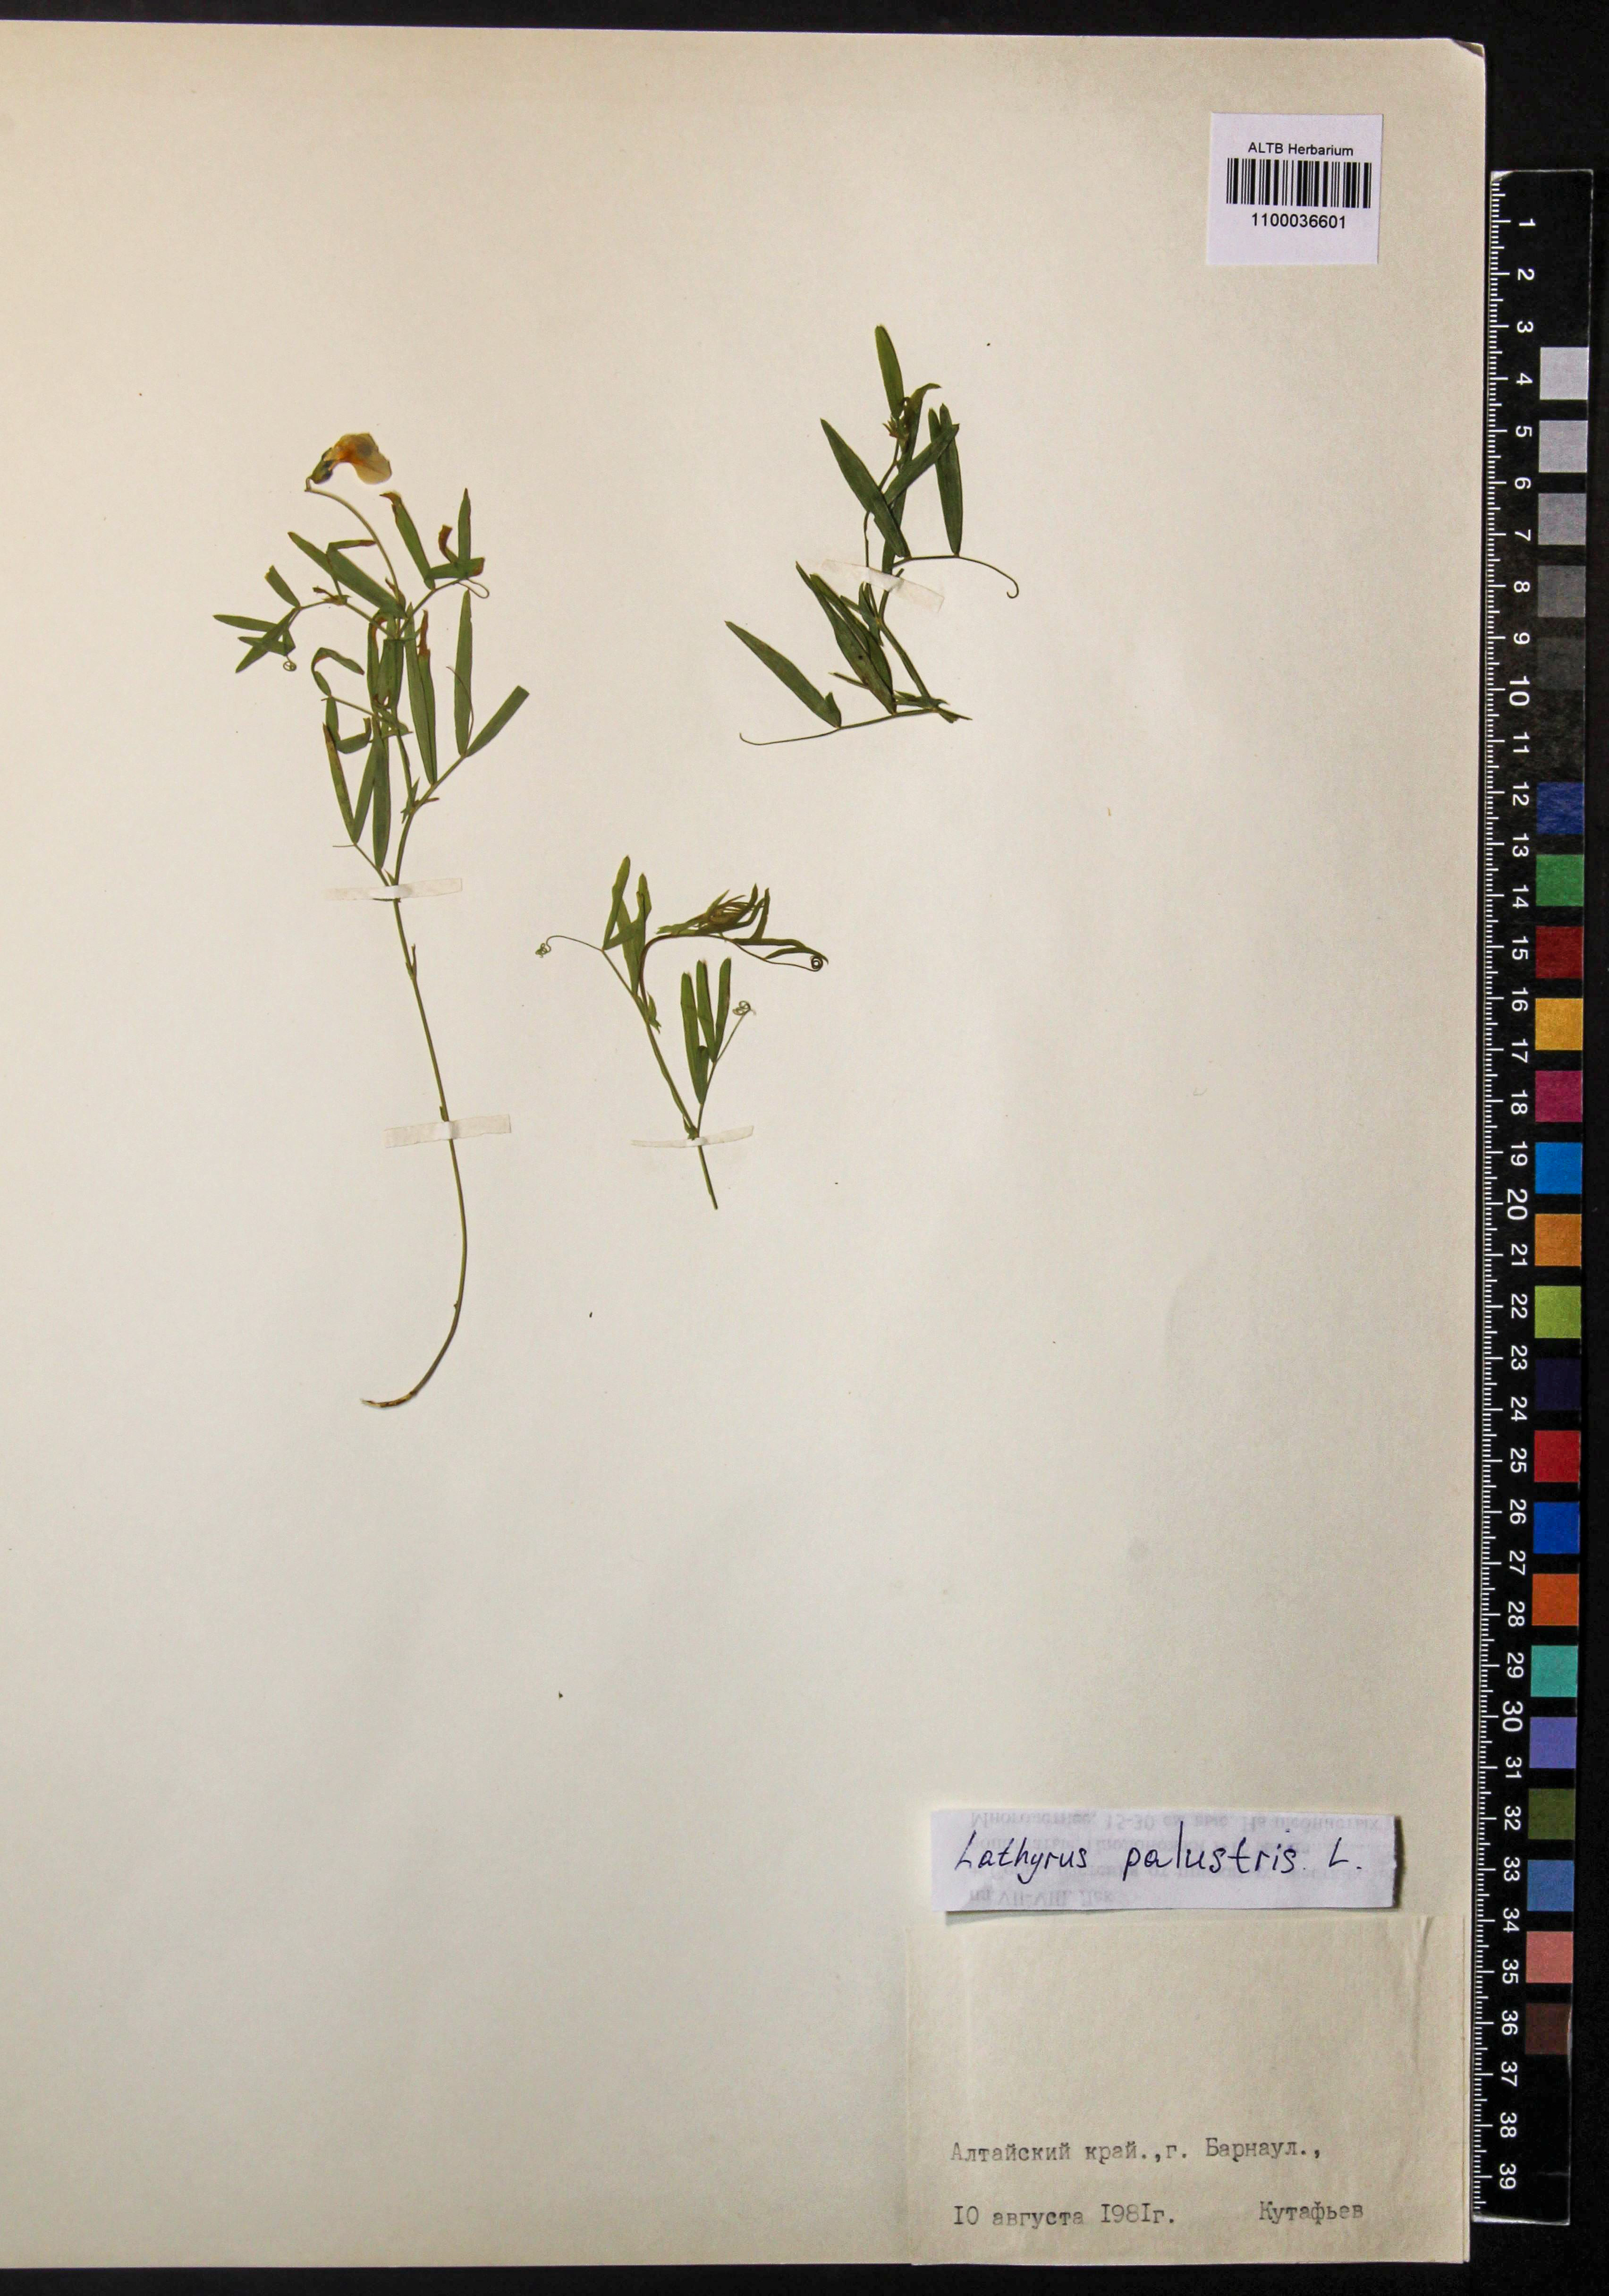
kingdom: Plantae
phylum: Tracheophyta
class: Magnoliopsida
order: Fabales
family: Fabaceae
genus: Lathyrus
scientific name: Lathyrus palustris
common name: Marsh pea
